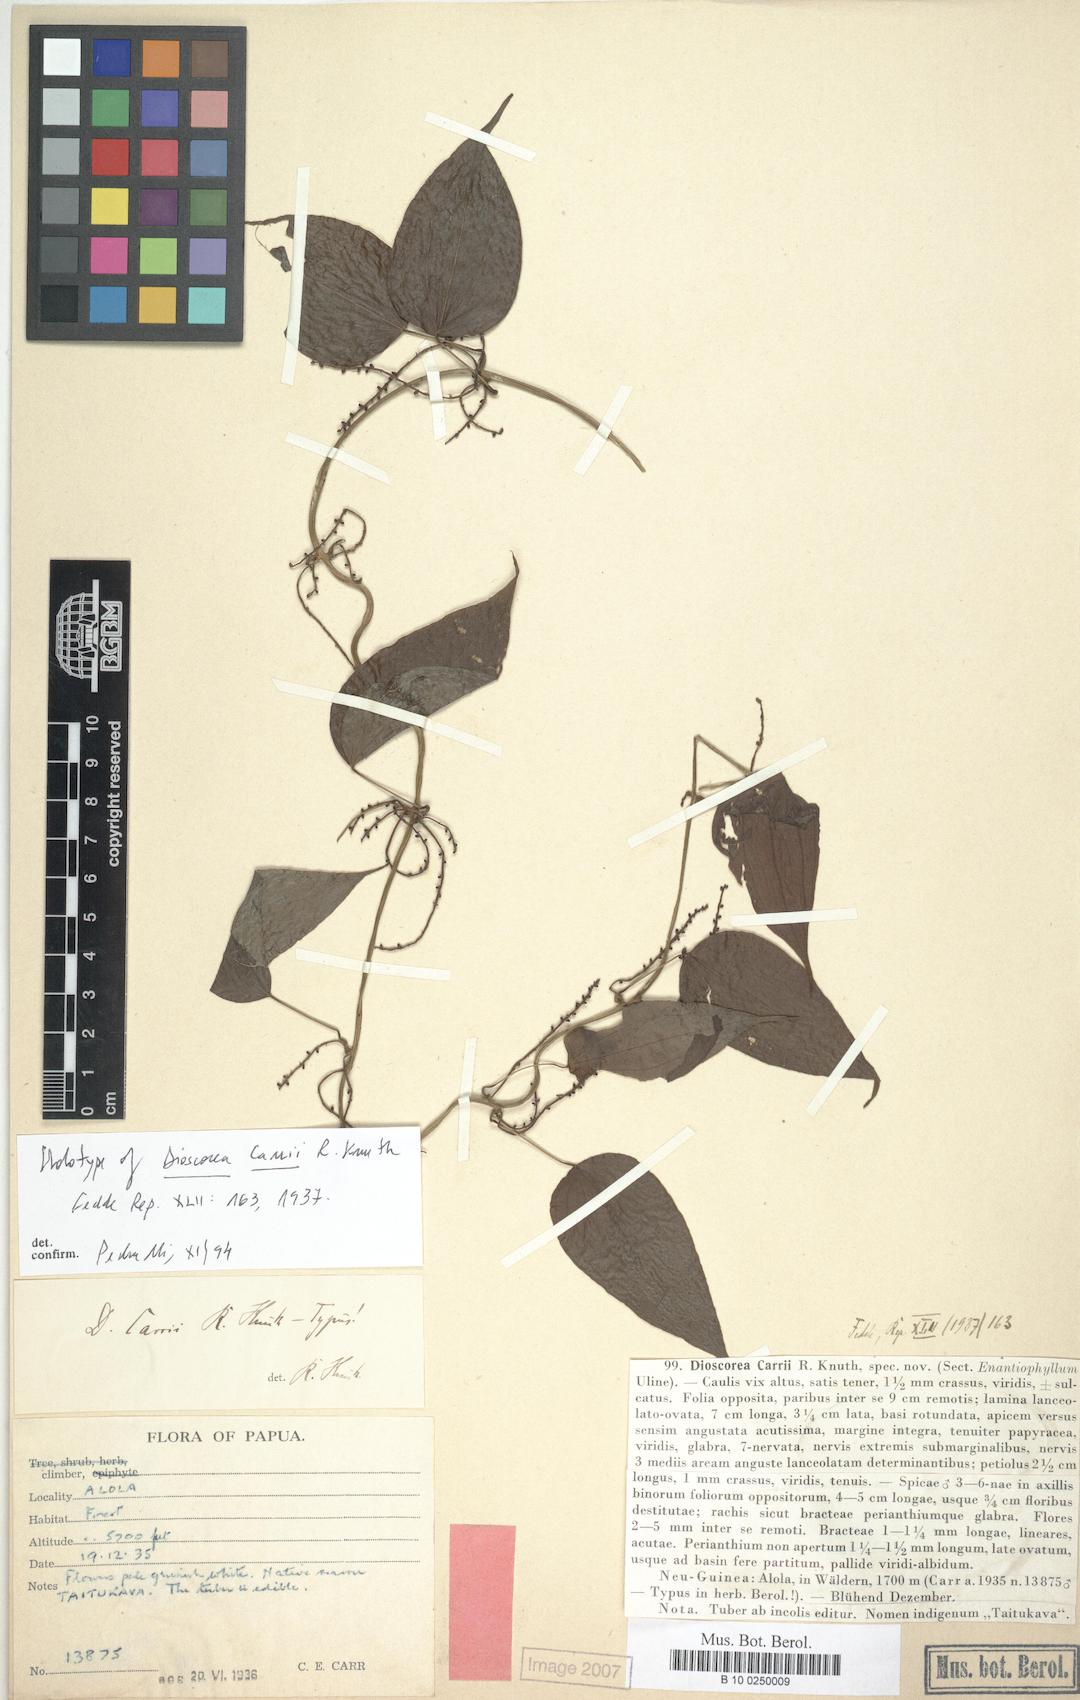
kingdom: Plantae
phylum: Tracheophyta
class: Liliopsida
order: Dioscoreales
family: Dioscoreaceae
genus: Dioscorea
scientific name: Dioscorea opaca
